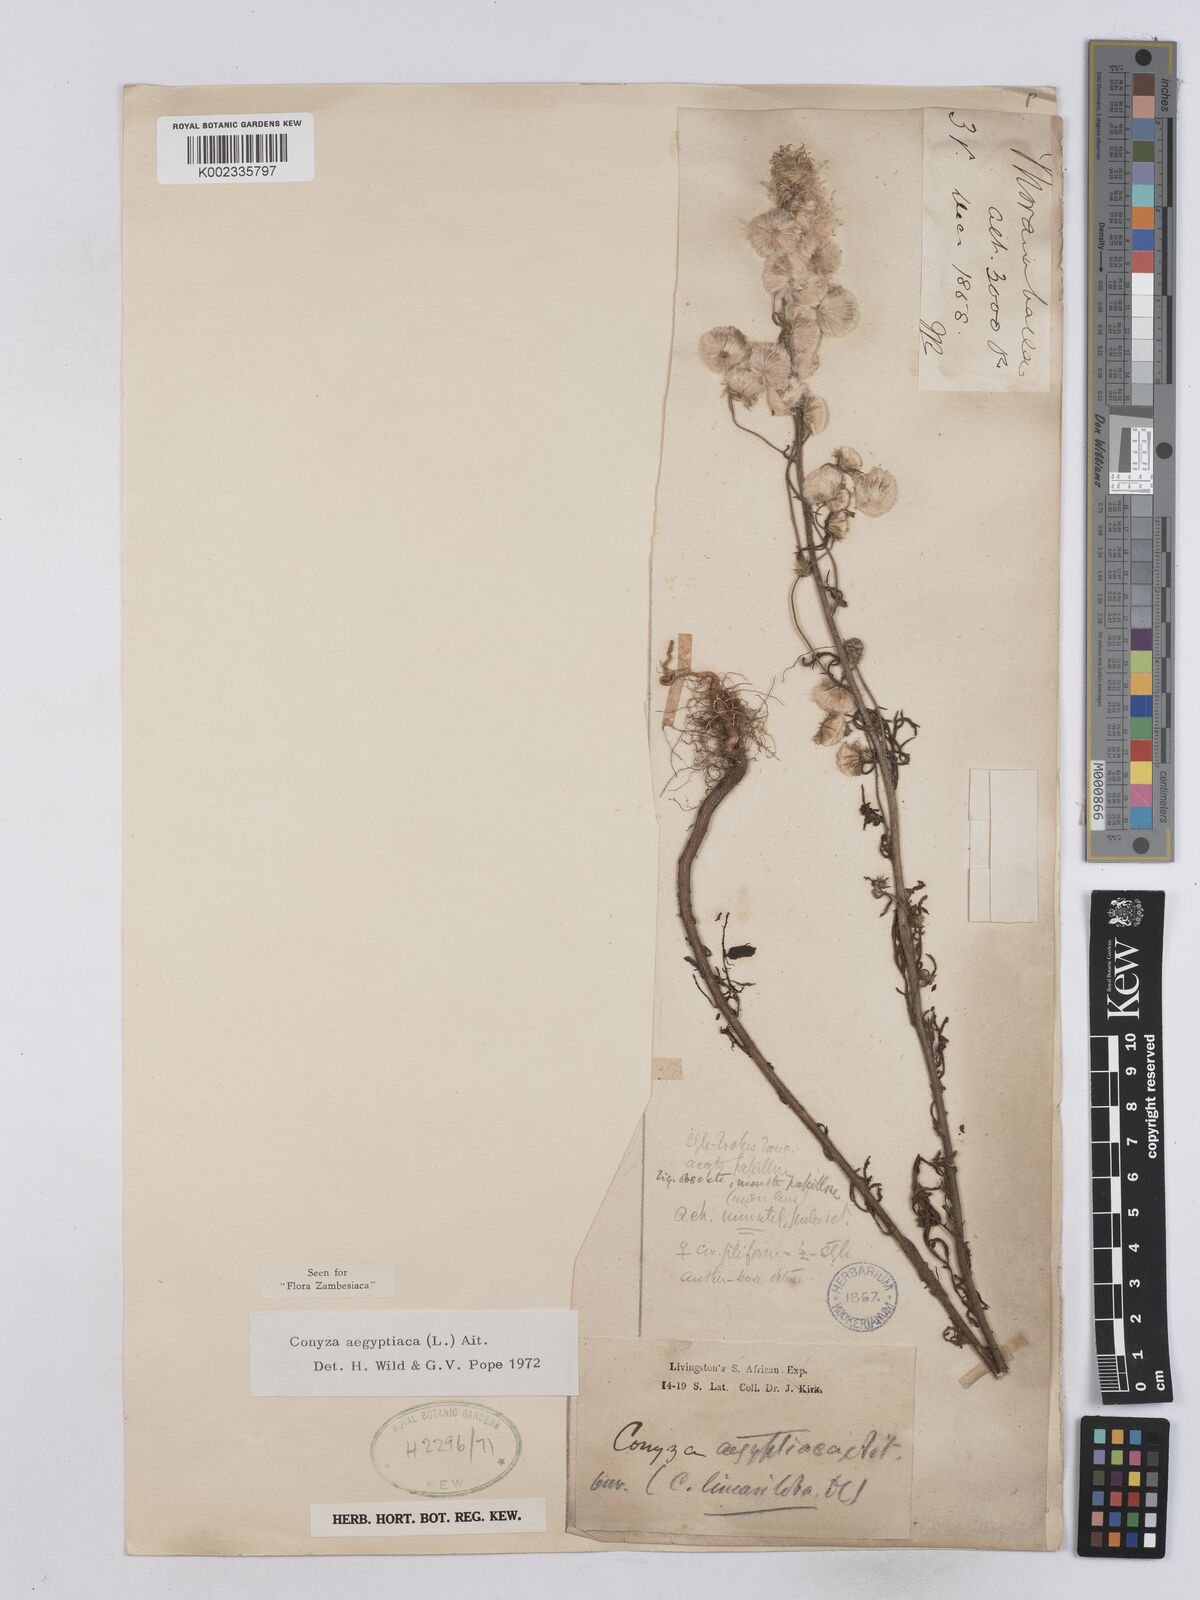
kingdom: Plantae
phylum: Tracheophyta
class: Magnoliopsida
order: Asterales
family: Asteraceae
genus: Nidorella
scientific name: Nidorella aegyptiaca
